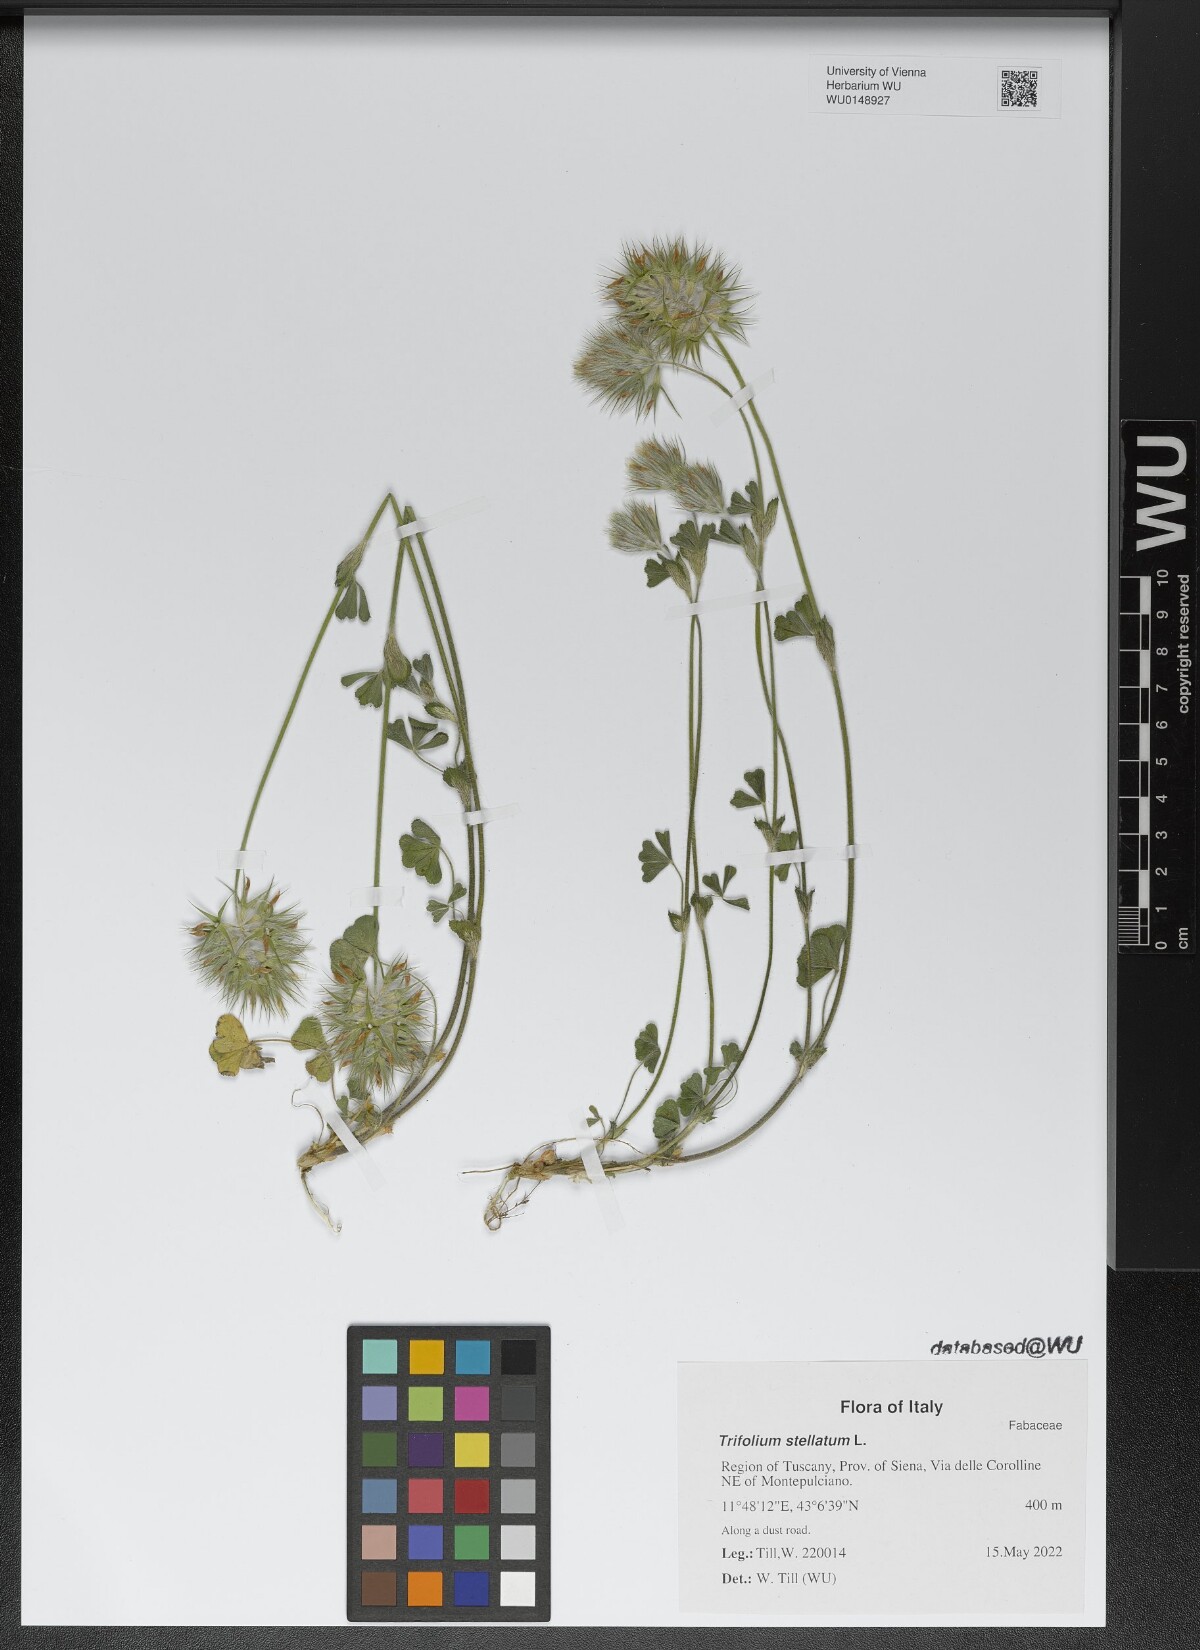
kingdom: Plantae
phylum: Tracheophyta
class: Magnoliopsida
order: Fabales
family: Fabaceae
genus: Trifolium
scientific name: Trifolium stellatum
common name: Starry clover
